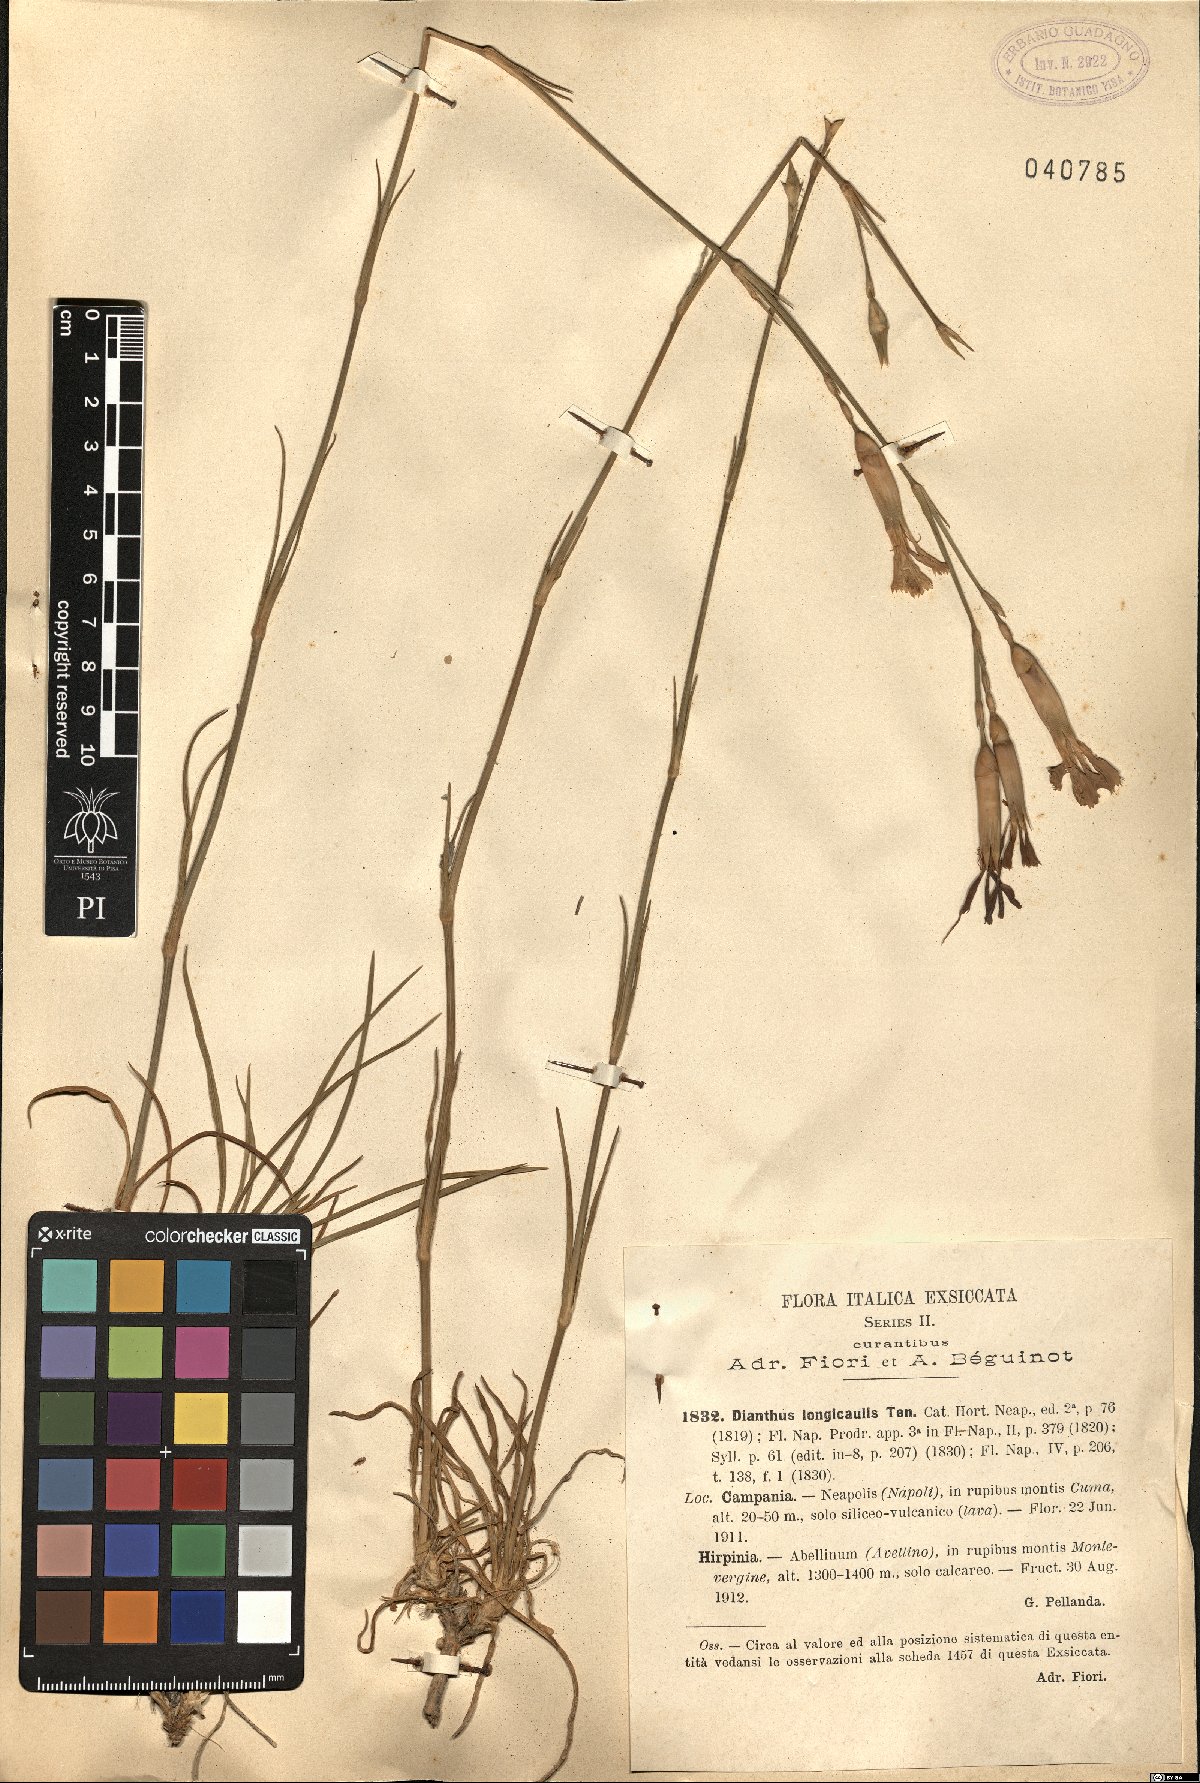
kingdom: Plantae
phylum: Tracheophyta
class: Magnoliopsida
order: Caryophyllales
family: Caryophyllaceae
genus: Dianthus
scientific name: Dianthus virgineus
